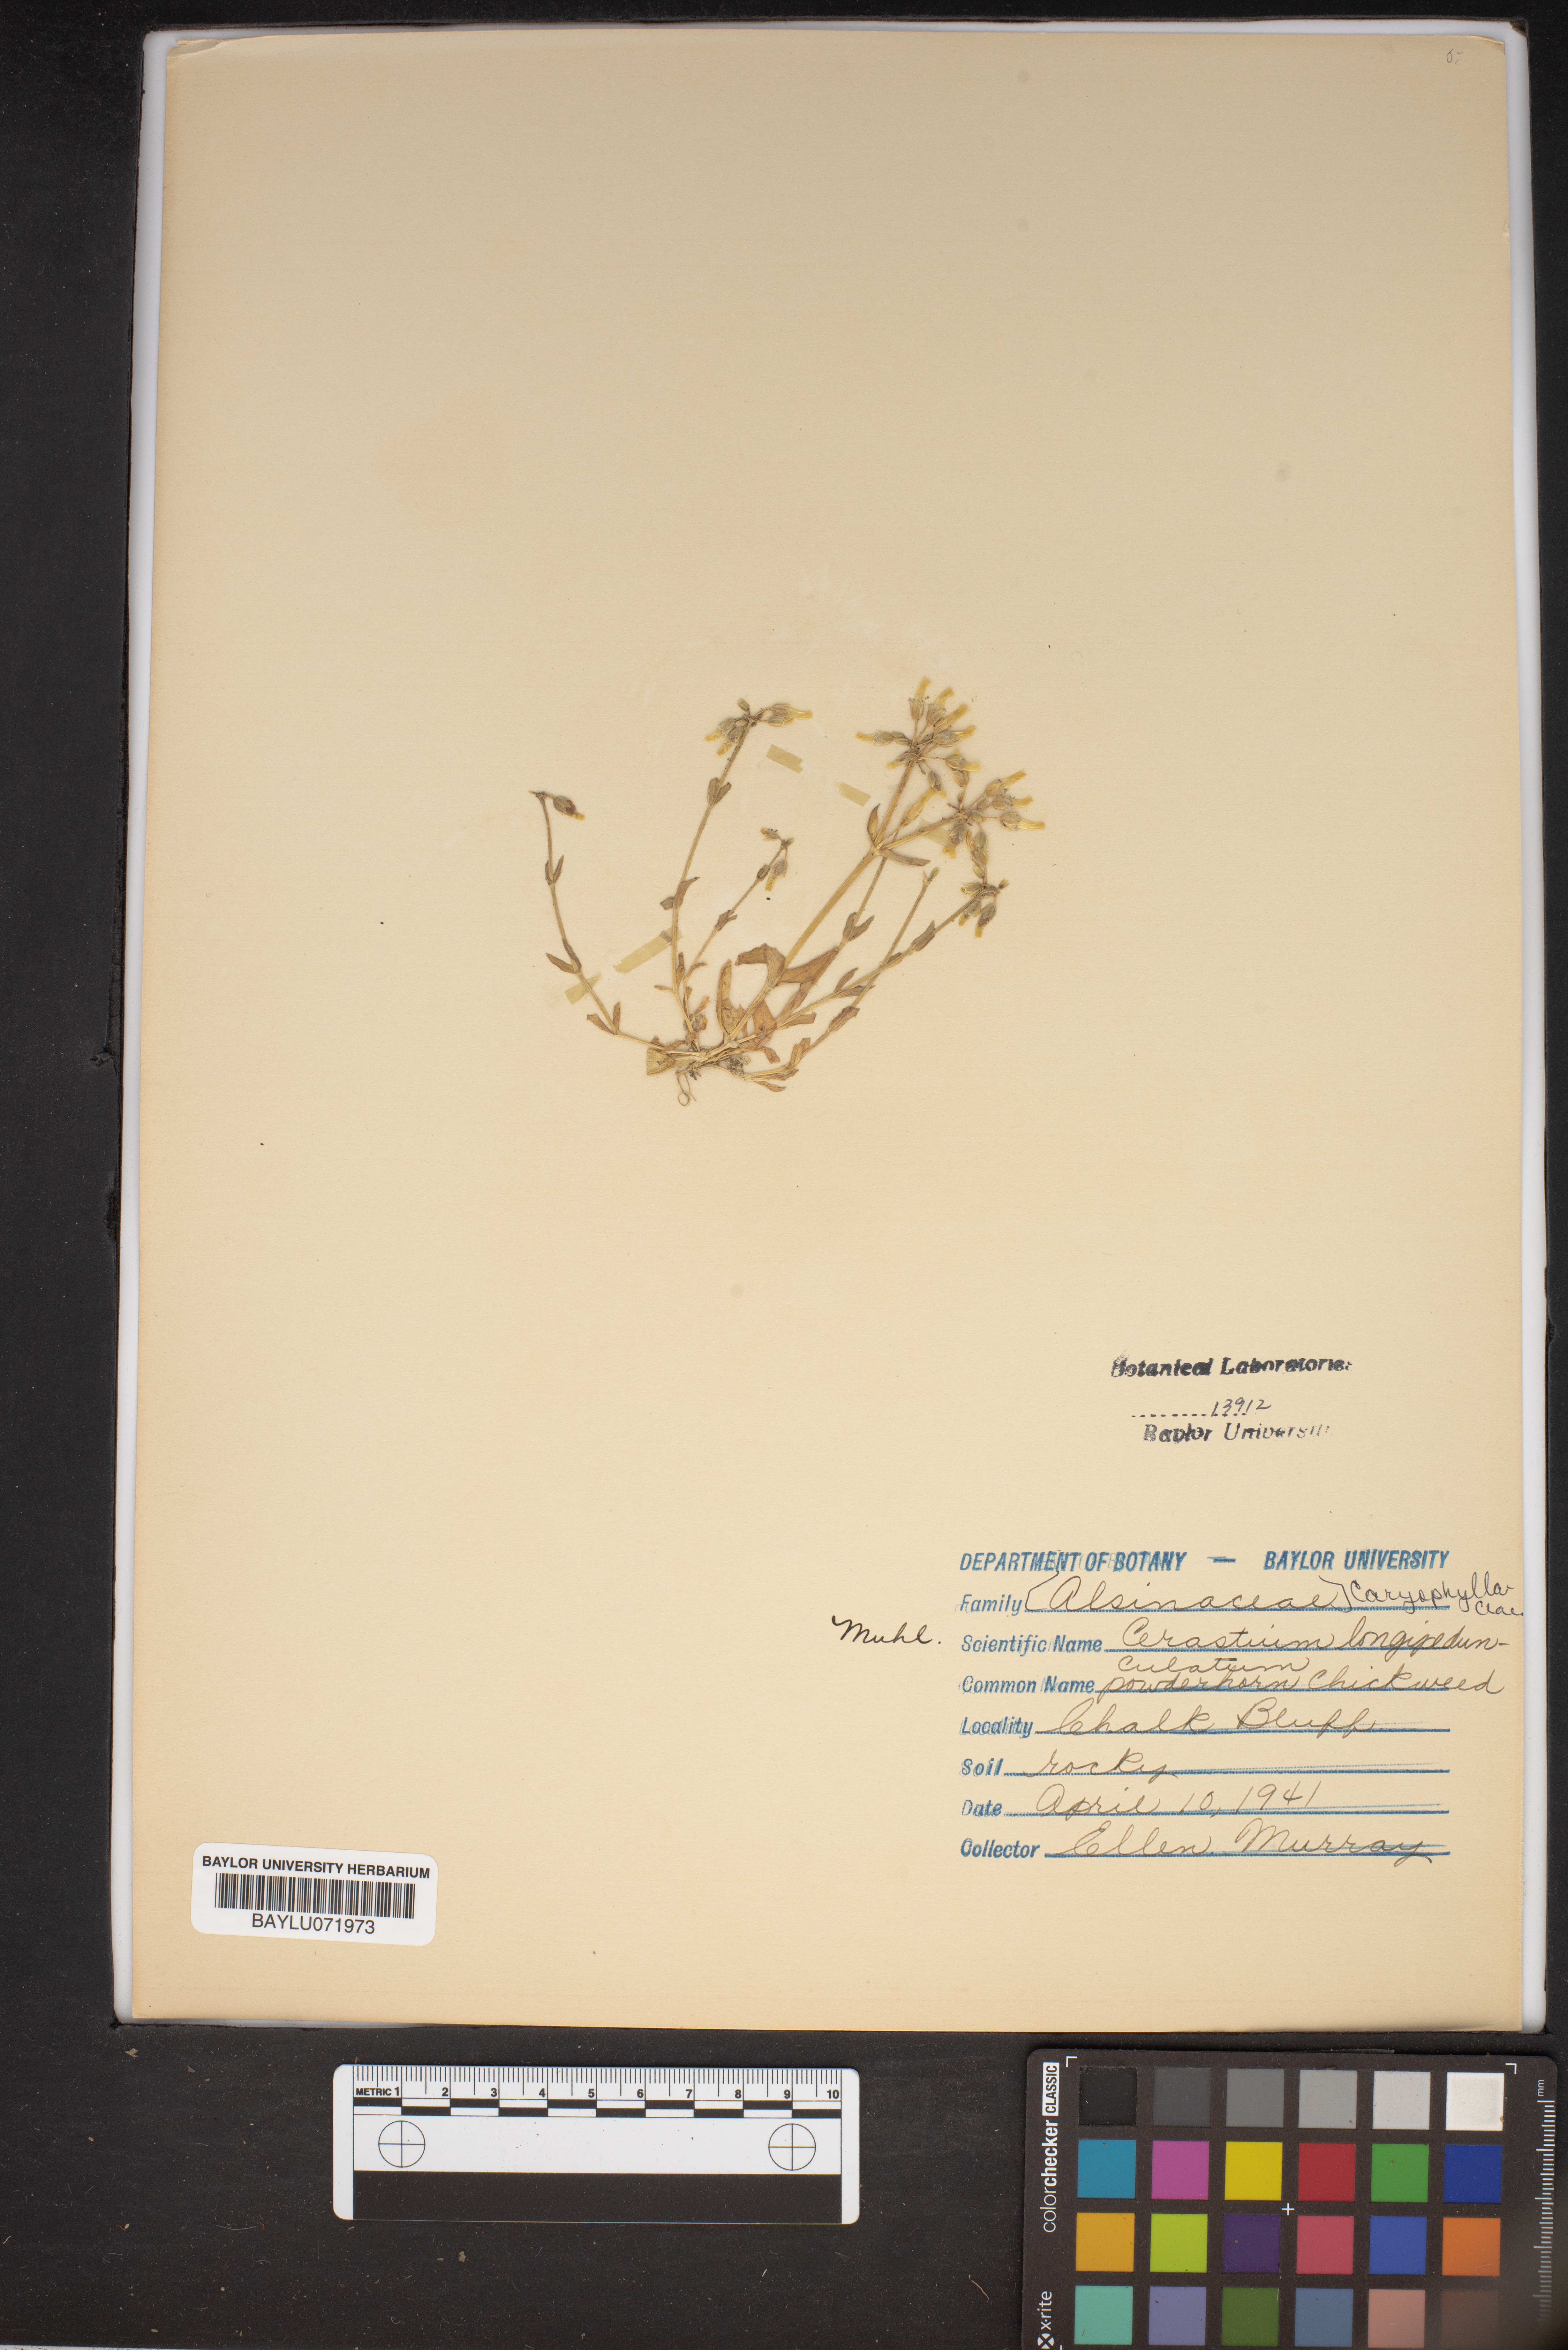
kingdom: Plantae
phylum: Tracheophyta
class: Magnoliopsida
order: Caryophyllales
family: Caryophyllaceae
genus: Cerastium
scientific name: Cerastium nutans
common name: Long-stalked chickweed
